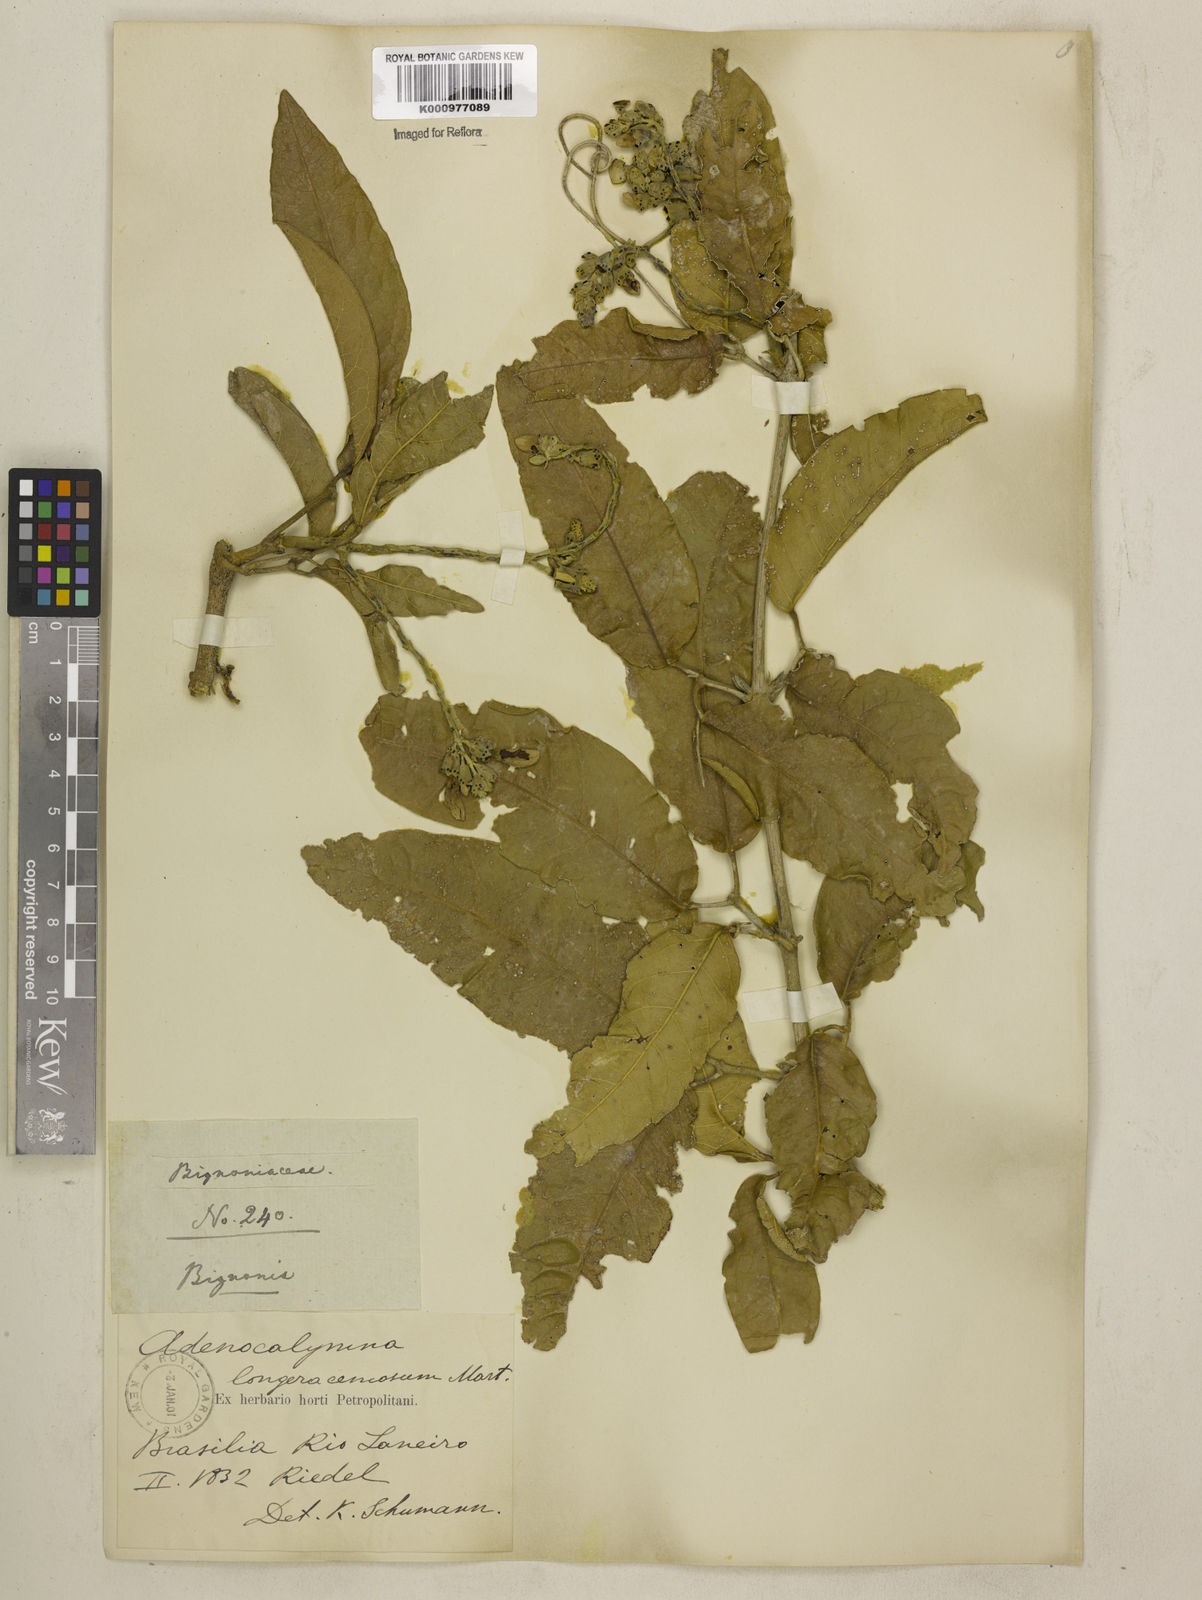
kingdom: Plantae
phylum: Tracheophyta
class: Magnoliopsida
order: Lamiales
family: Bignoniaceae
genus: Adenocalymma
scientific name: Adenocalymma trifoliatum
